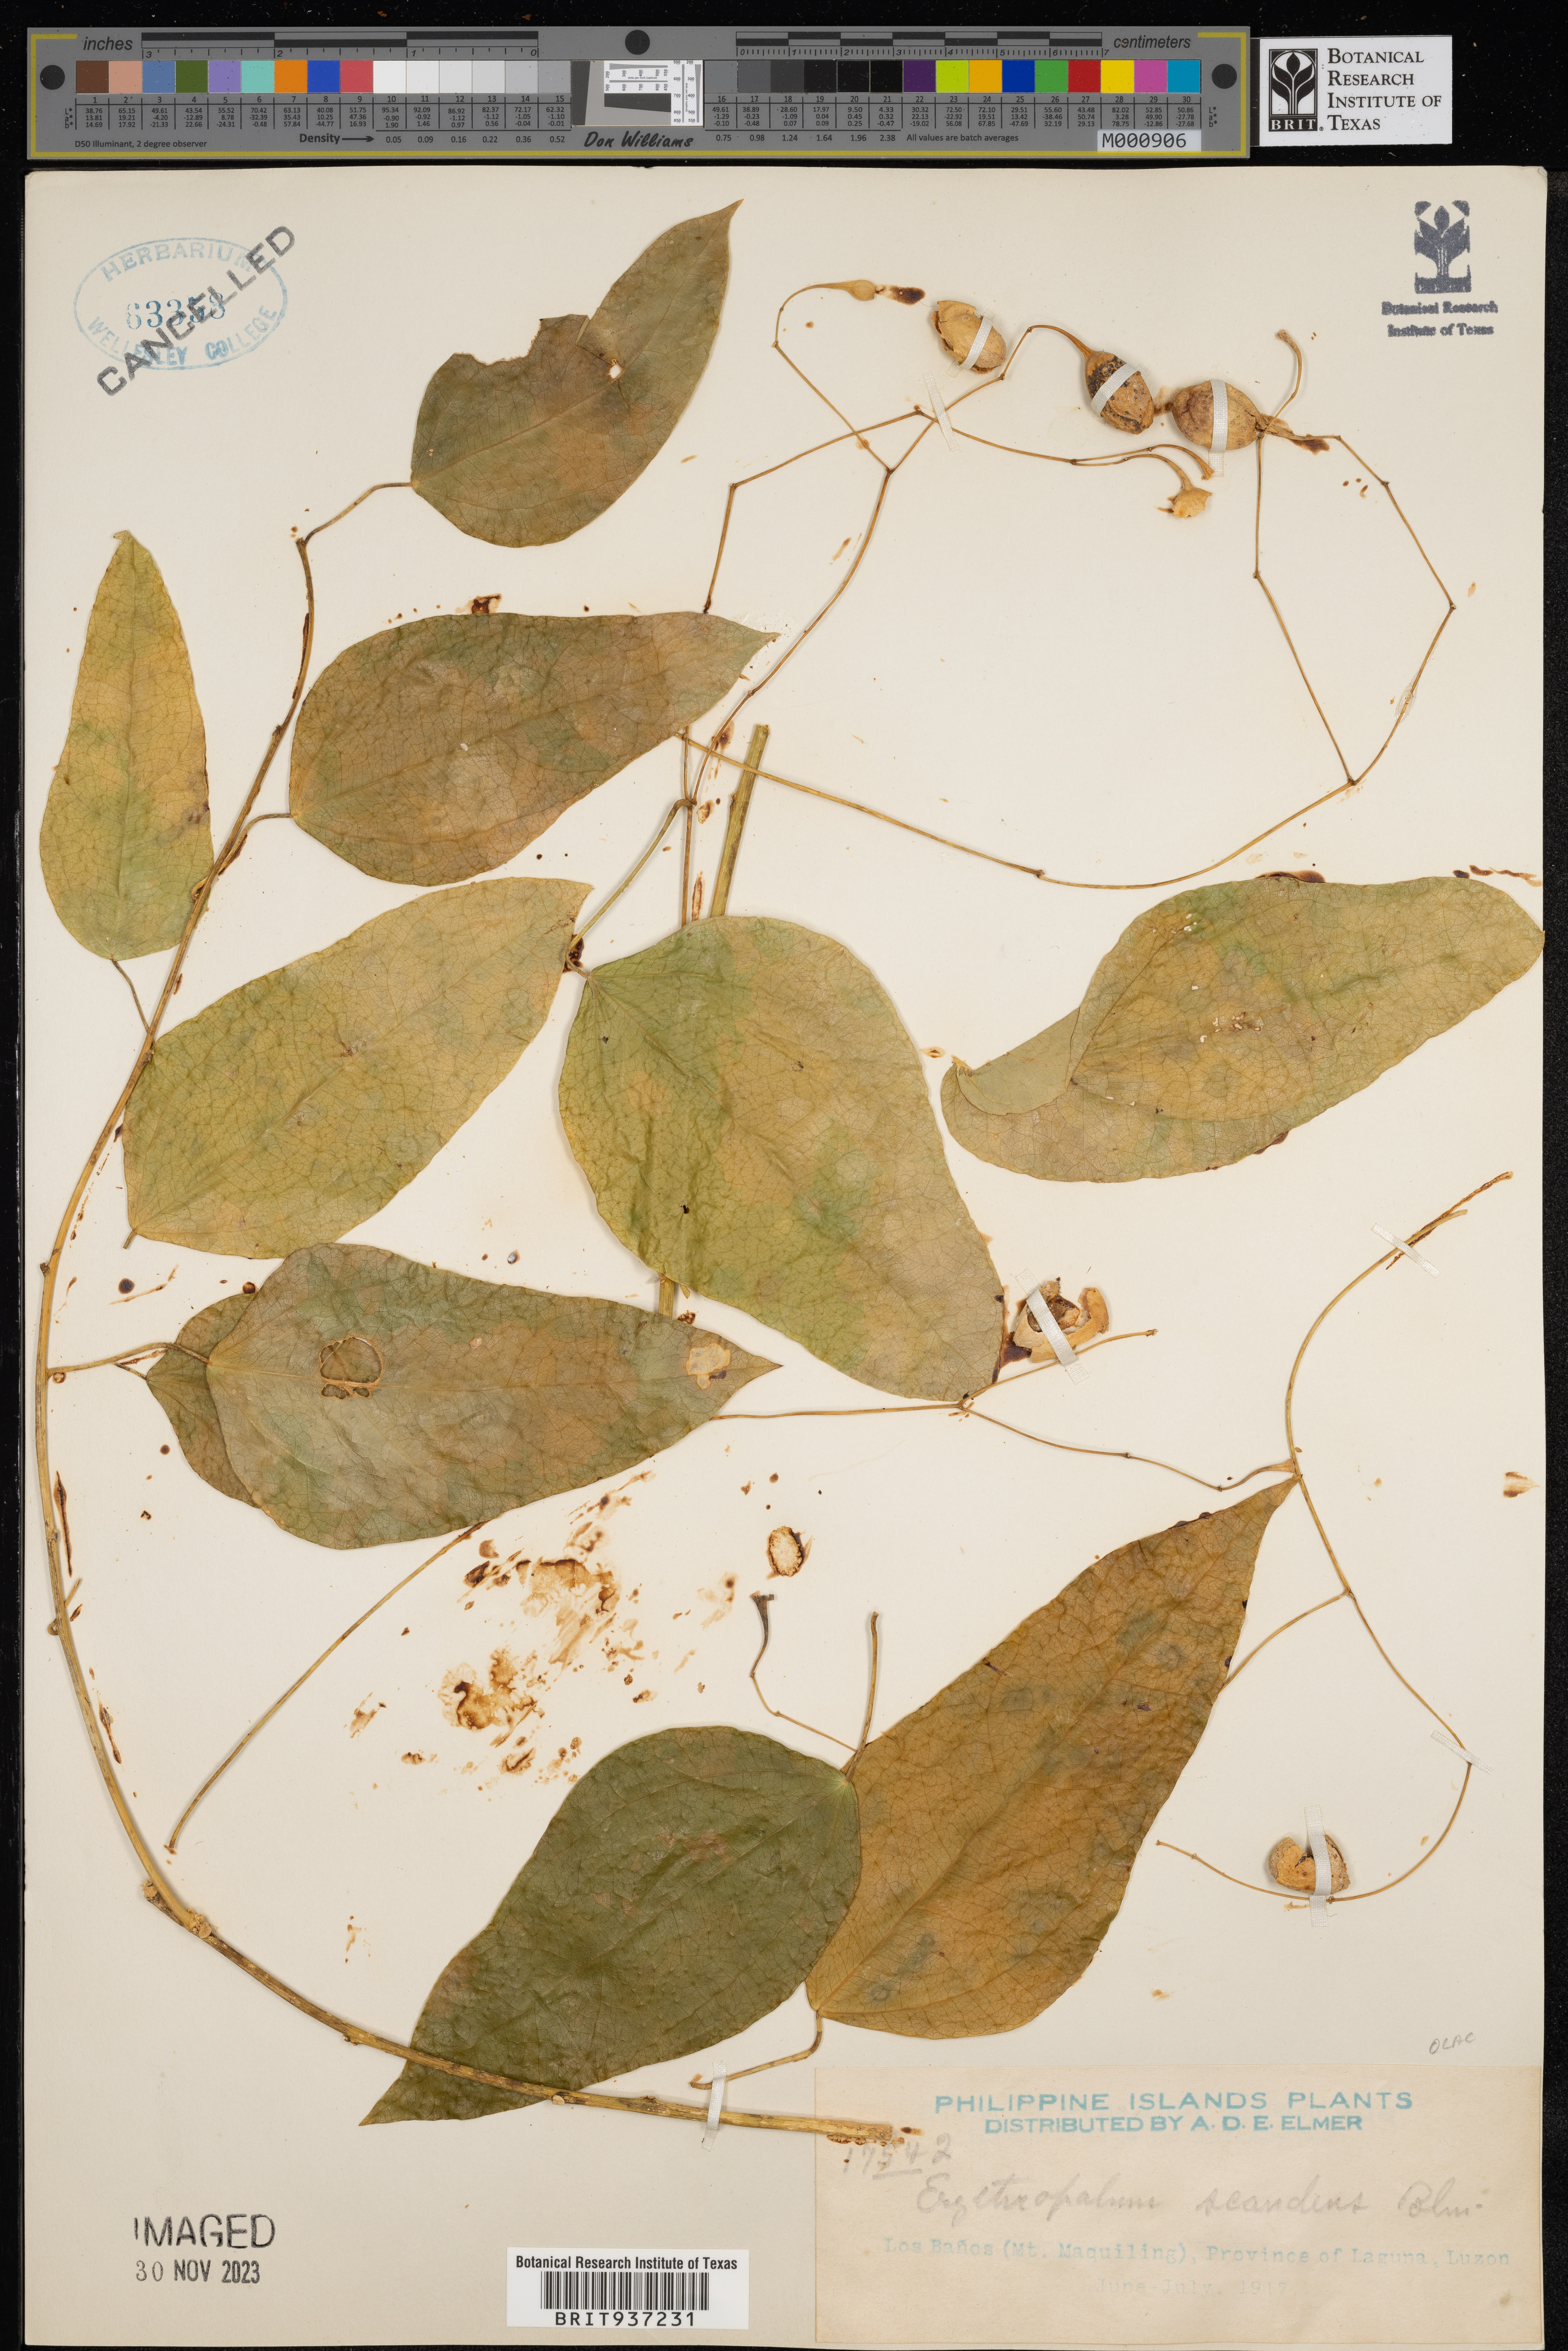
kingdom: Plantae
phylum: Tracheophyta
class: Magnoliopsida
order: Santalales
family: Erythropalaceae
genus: Erythropalum
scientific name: Erythropalum scandens
